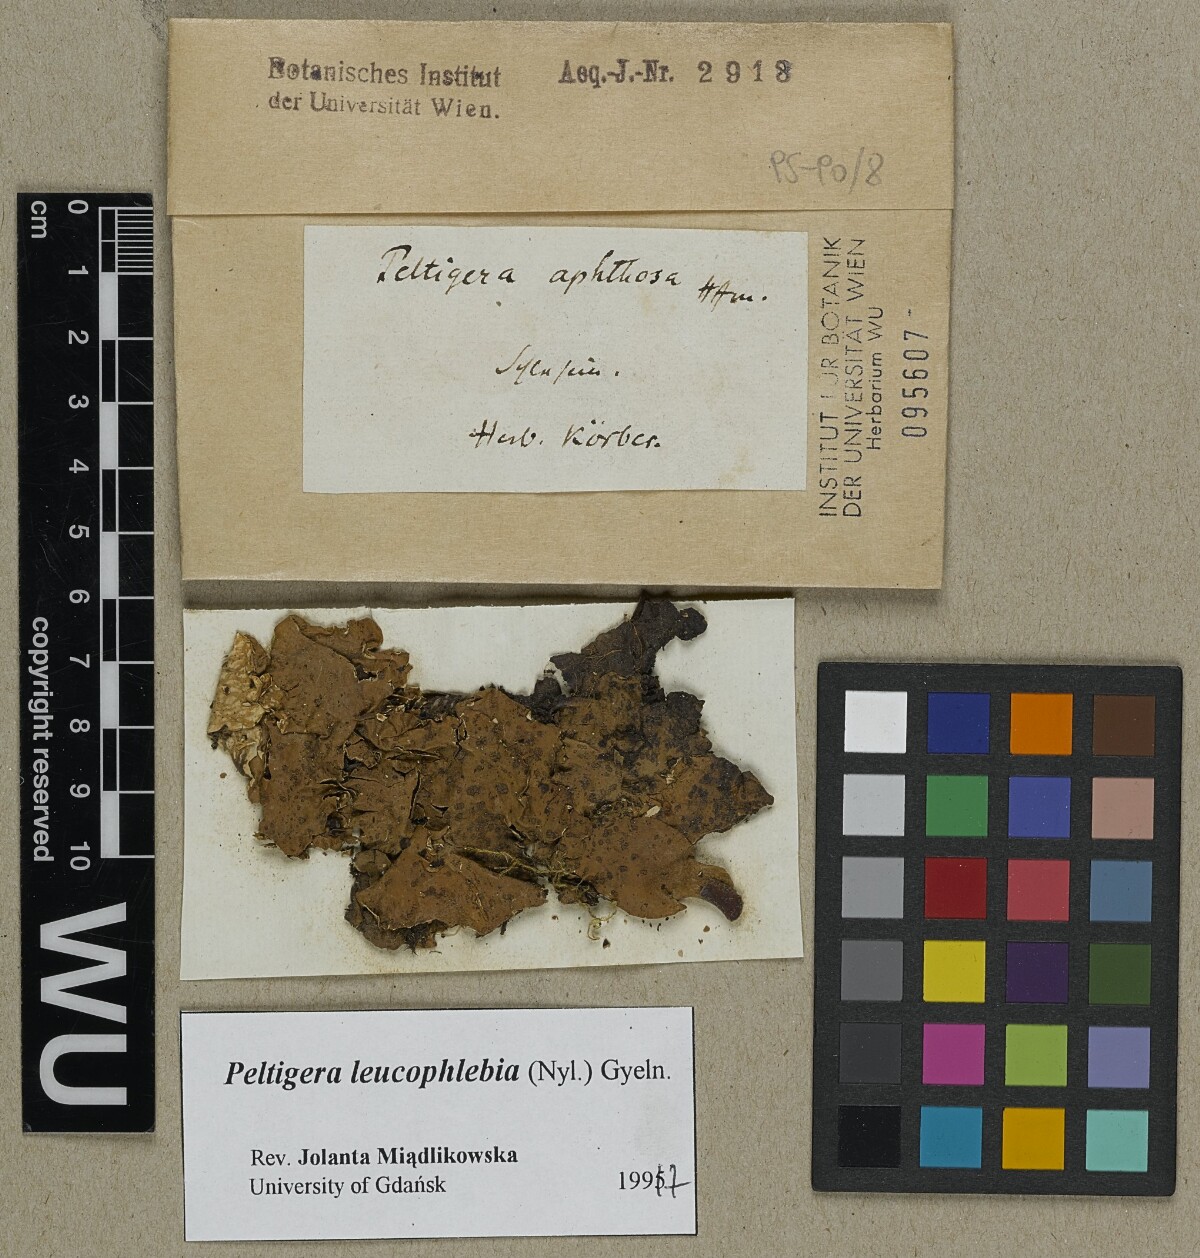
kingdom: Fungi
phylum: Ascomycota
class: Lecanoromycetes
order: Peltigerales
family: Peltigeraceae
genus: Peltigera
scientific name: Peltigera leucophlebia
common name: Ruffled freckle pelt lichen
